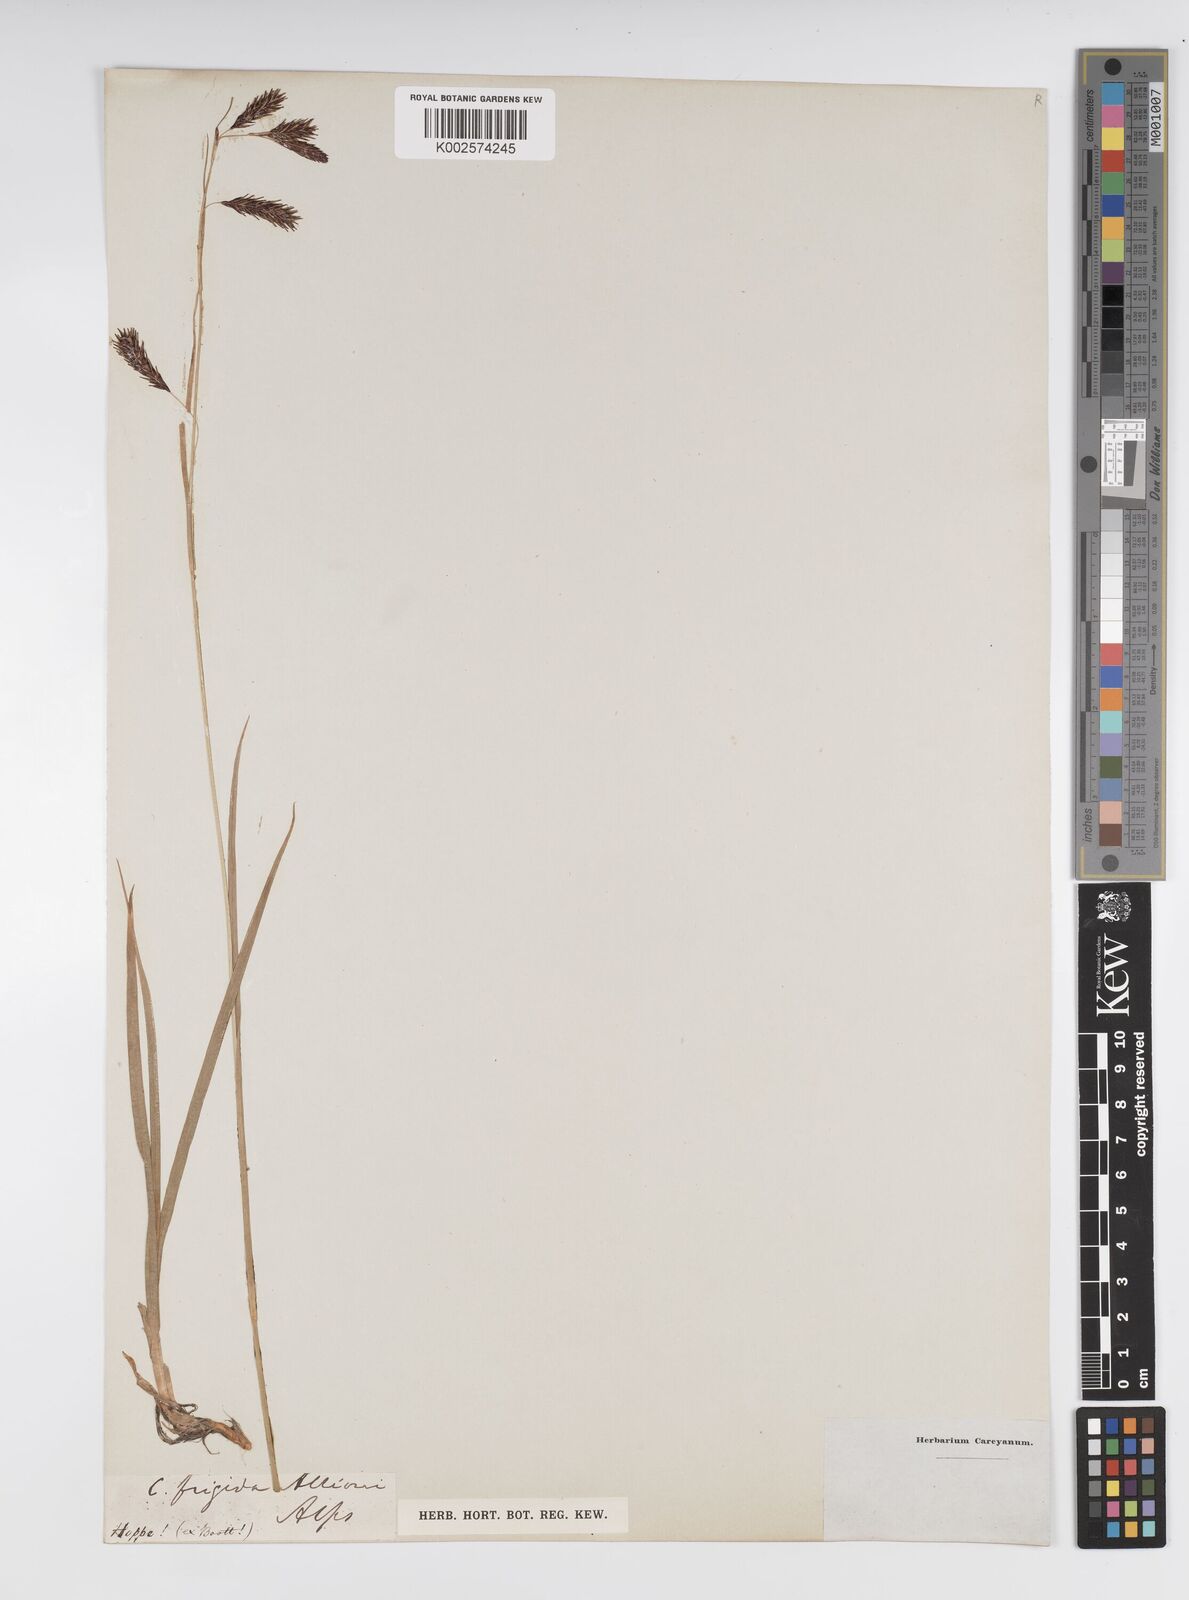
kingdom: Plantae
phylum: Tracheophyta
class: Liliopsida
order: Poales
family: Cyperaceae
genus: Carex
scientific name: Carex frigida
